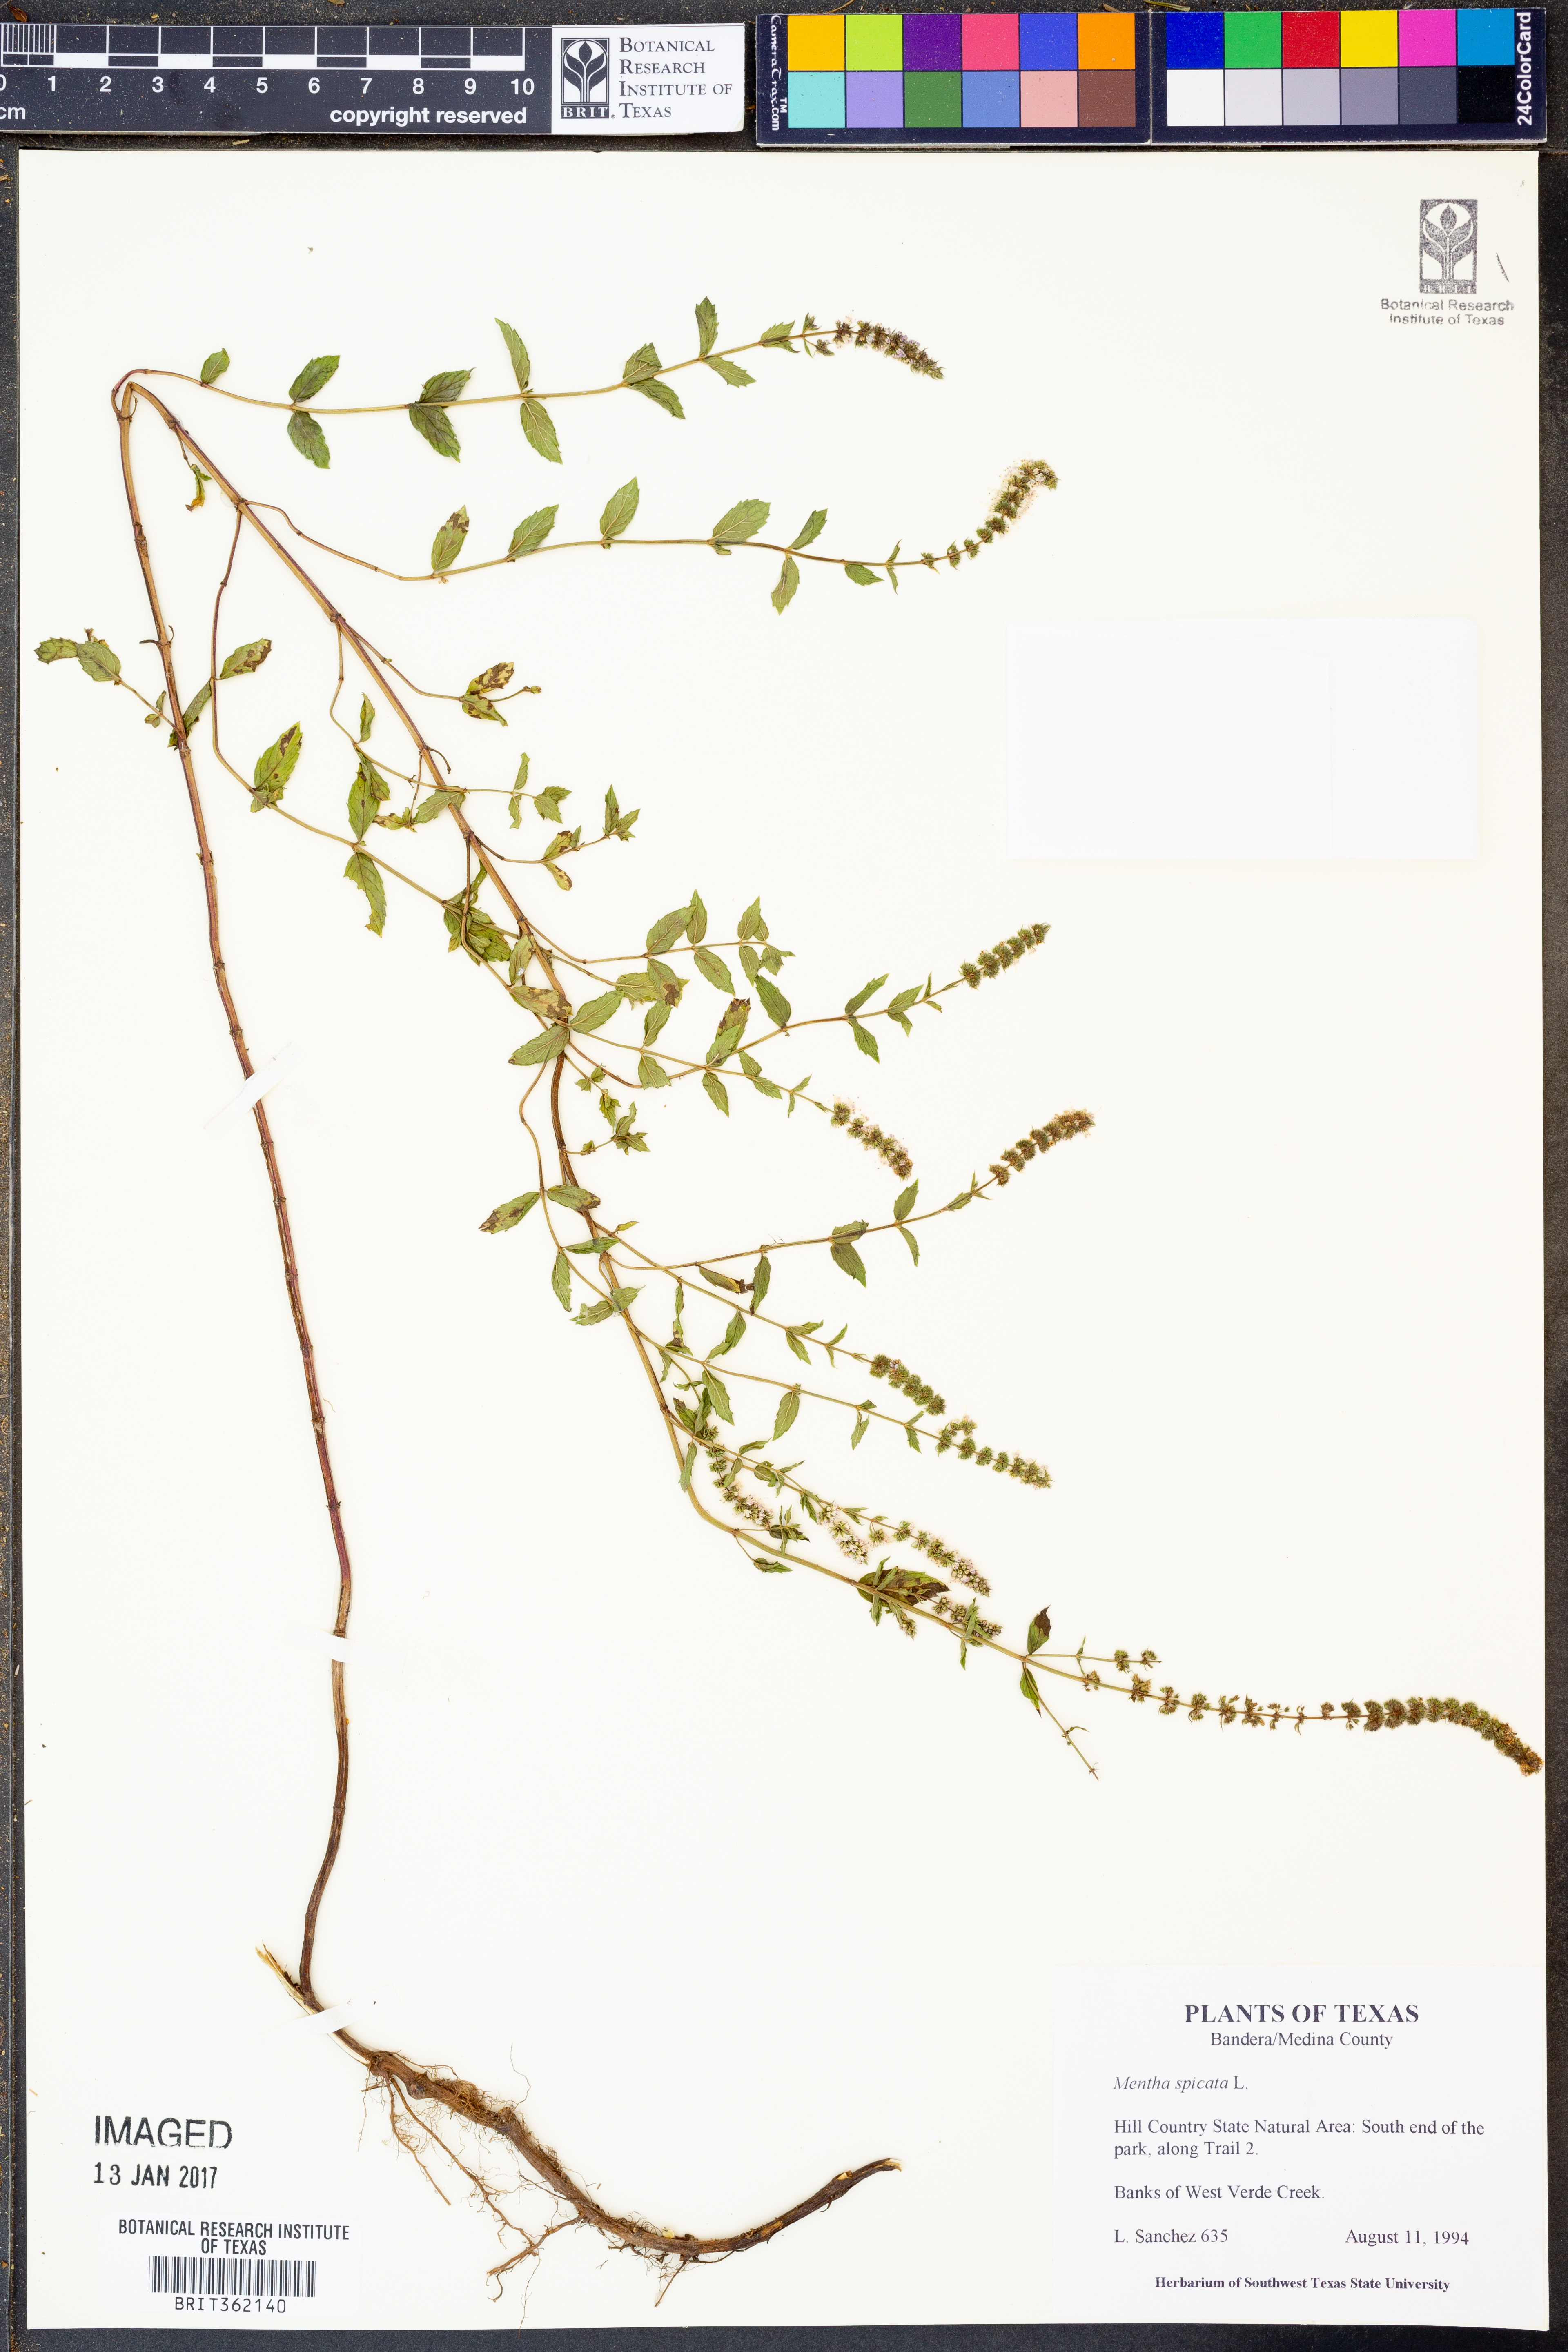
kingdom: Plantae
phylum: Tracheophyta
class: Magnoliopsida
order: Lamiales
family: Lamiaceae
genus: Mentha
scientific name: Mentha spicata
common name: Spearmint
